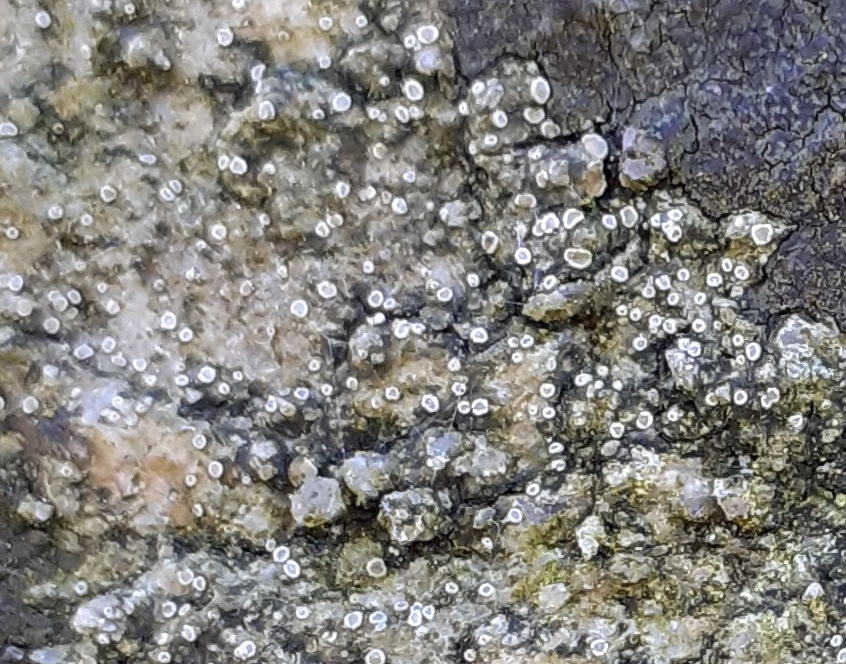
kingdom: Fungi
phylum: Ascomycota
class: Lecanoromycetes
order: Lecanorales
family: Lecanoraceae
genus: Polyozosia
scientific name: Polyozosia dispersa
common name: spredt kantskivelav
